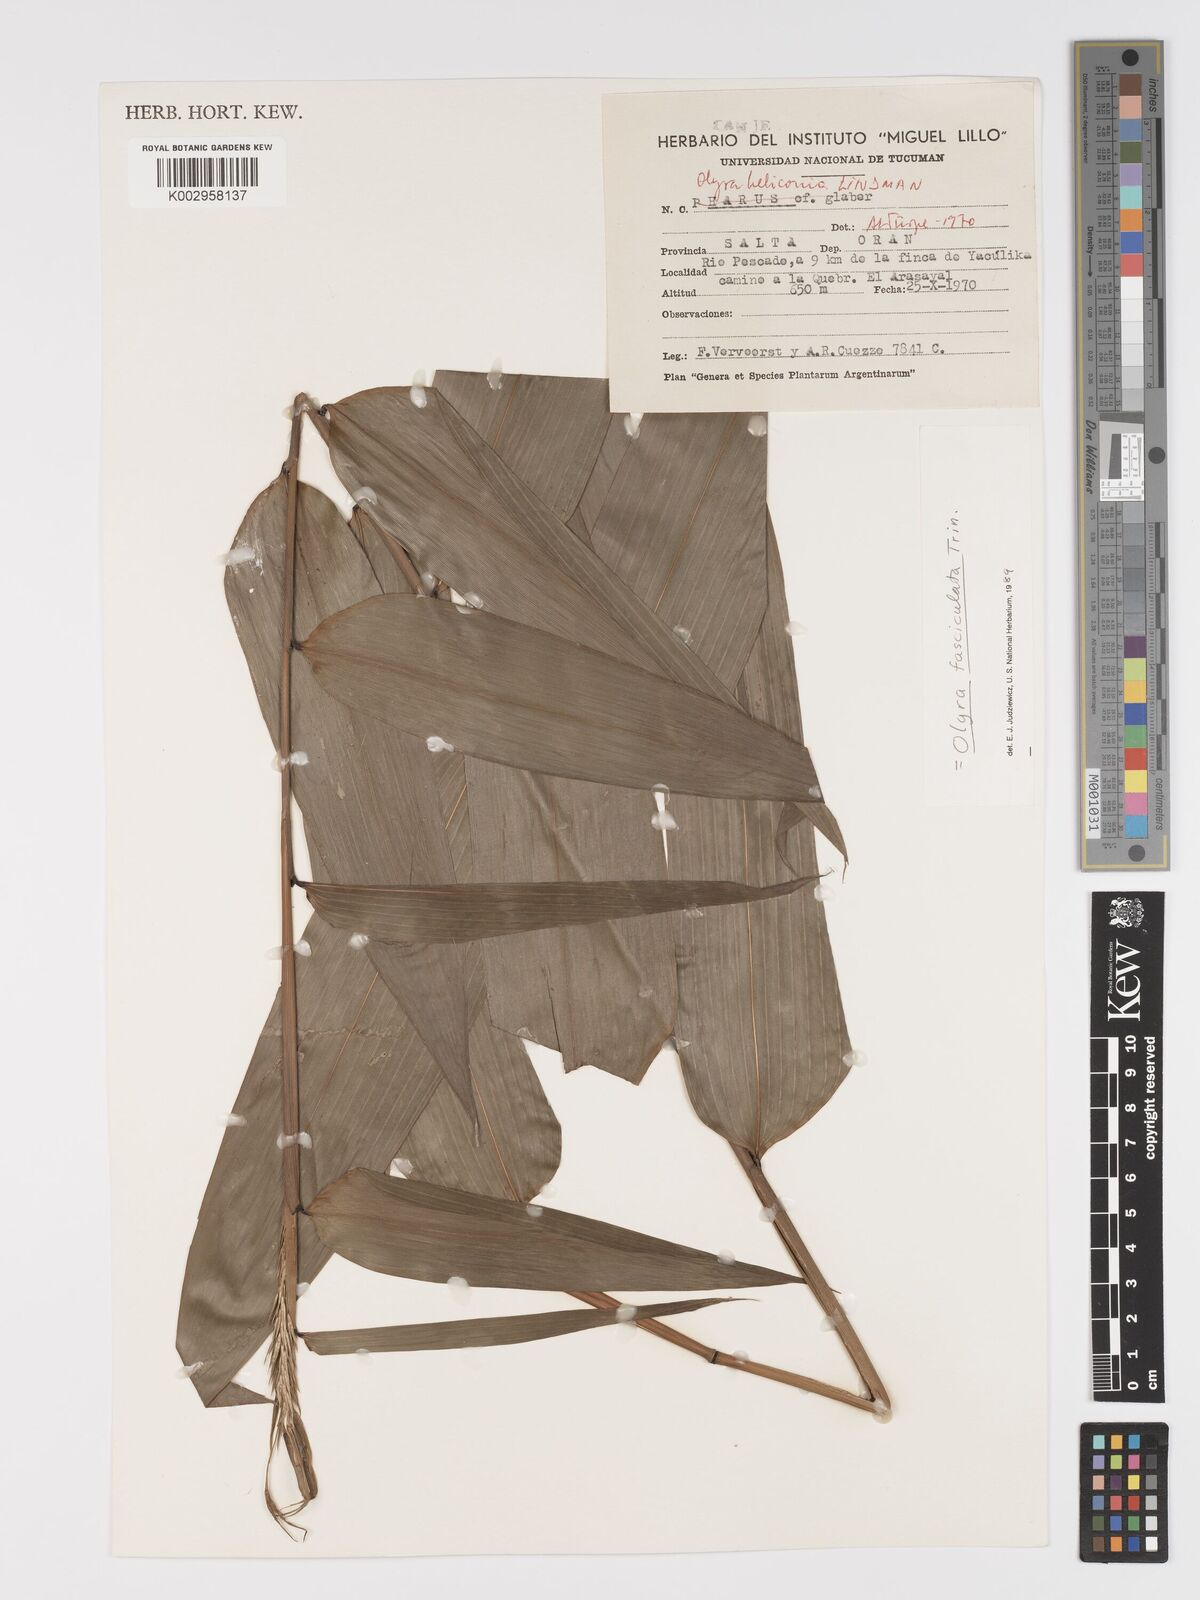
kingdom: Plantae
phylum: Tracheophyta
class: Liliopsida
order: Poales
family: Poaceae
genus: Olyra
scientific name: Olyra fasciculata
